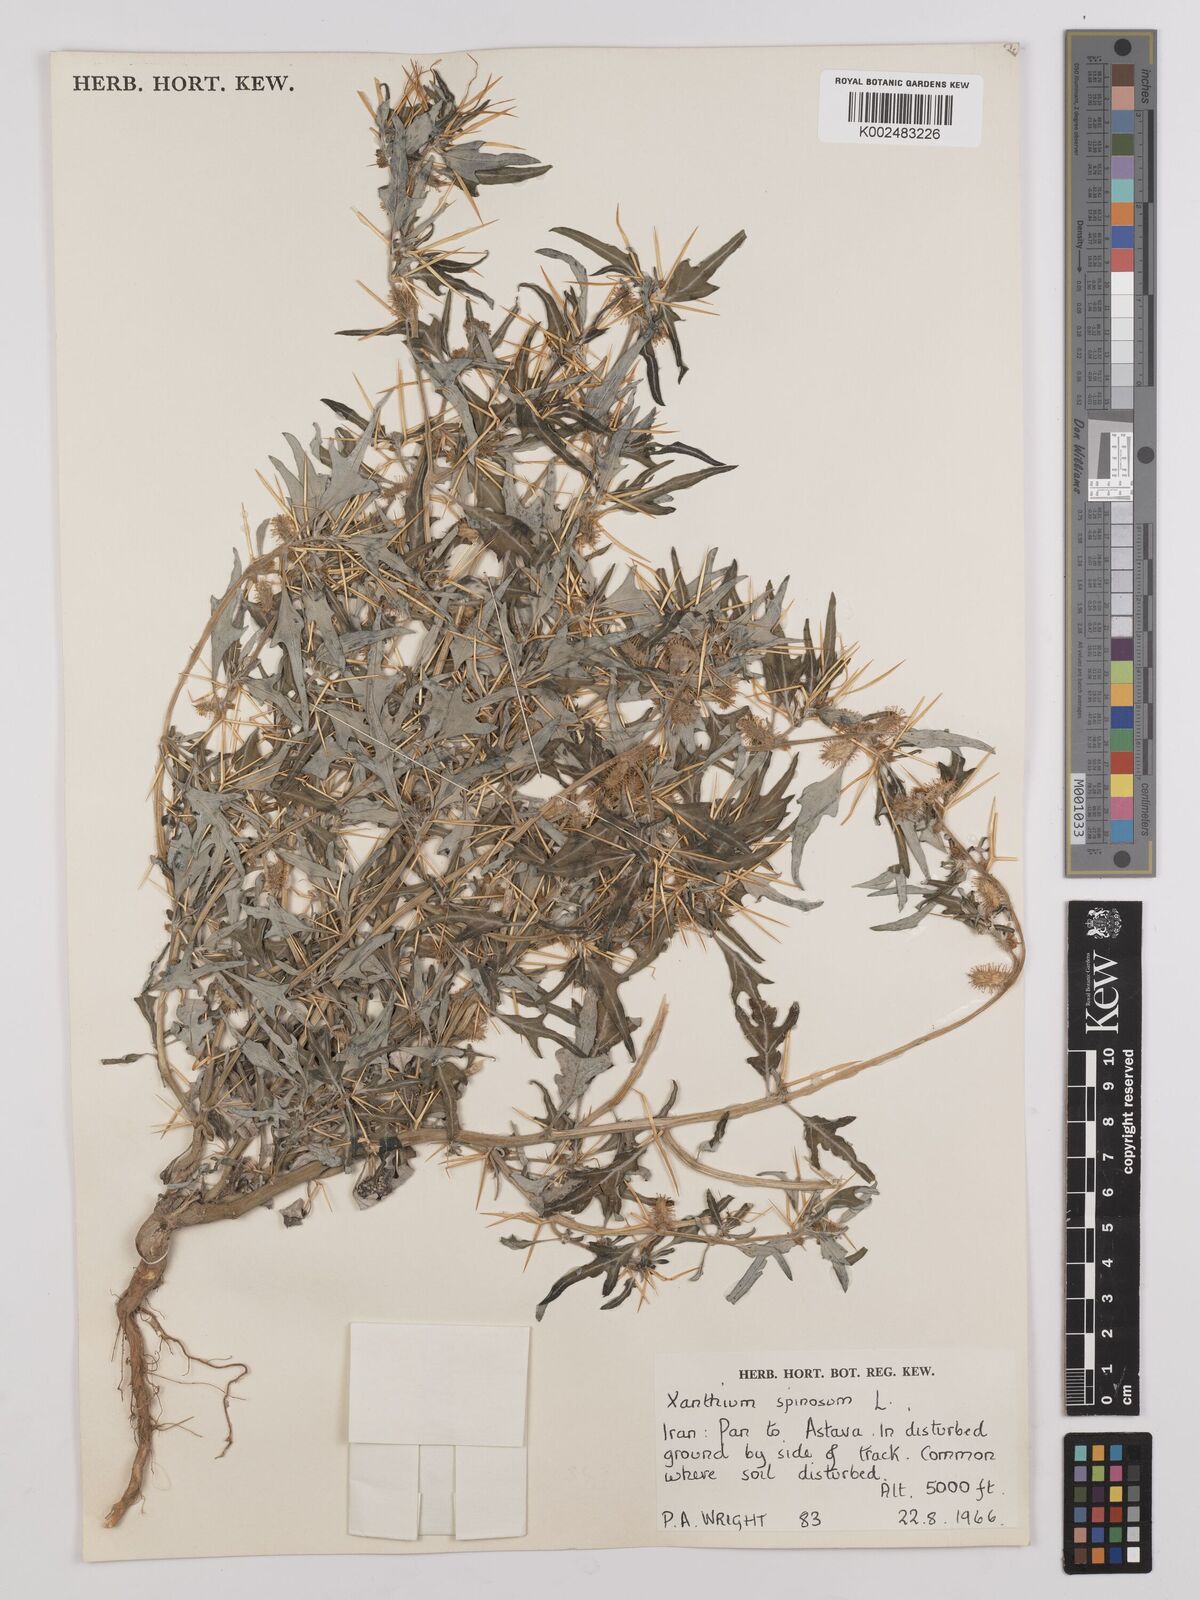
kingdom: Plantae
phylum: Tracheophyta
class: Magnoliopsida
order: Asterales
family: Asteraceae
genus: Xanthium
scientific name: Xanthium spinosum
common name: Spiny cocklebur
